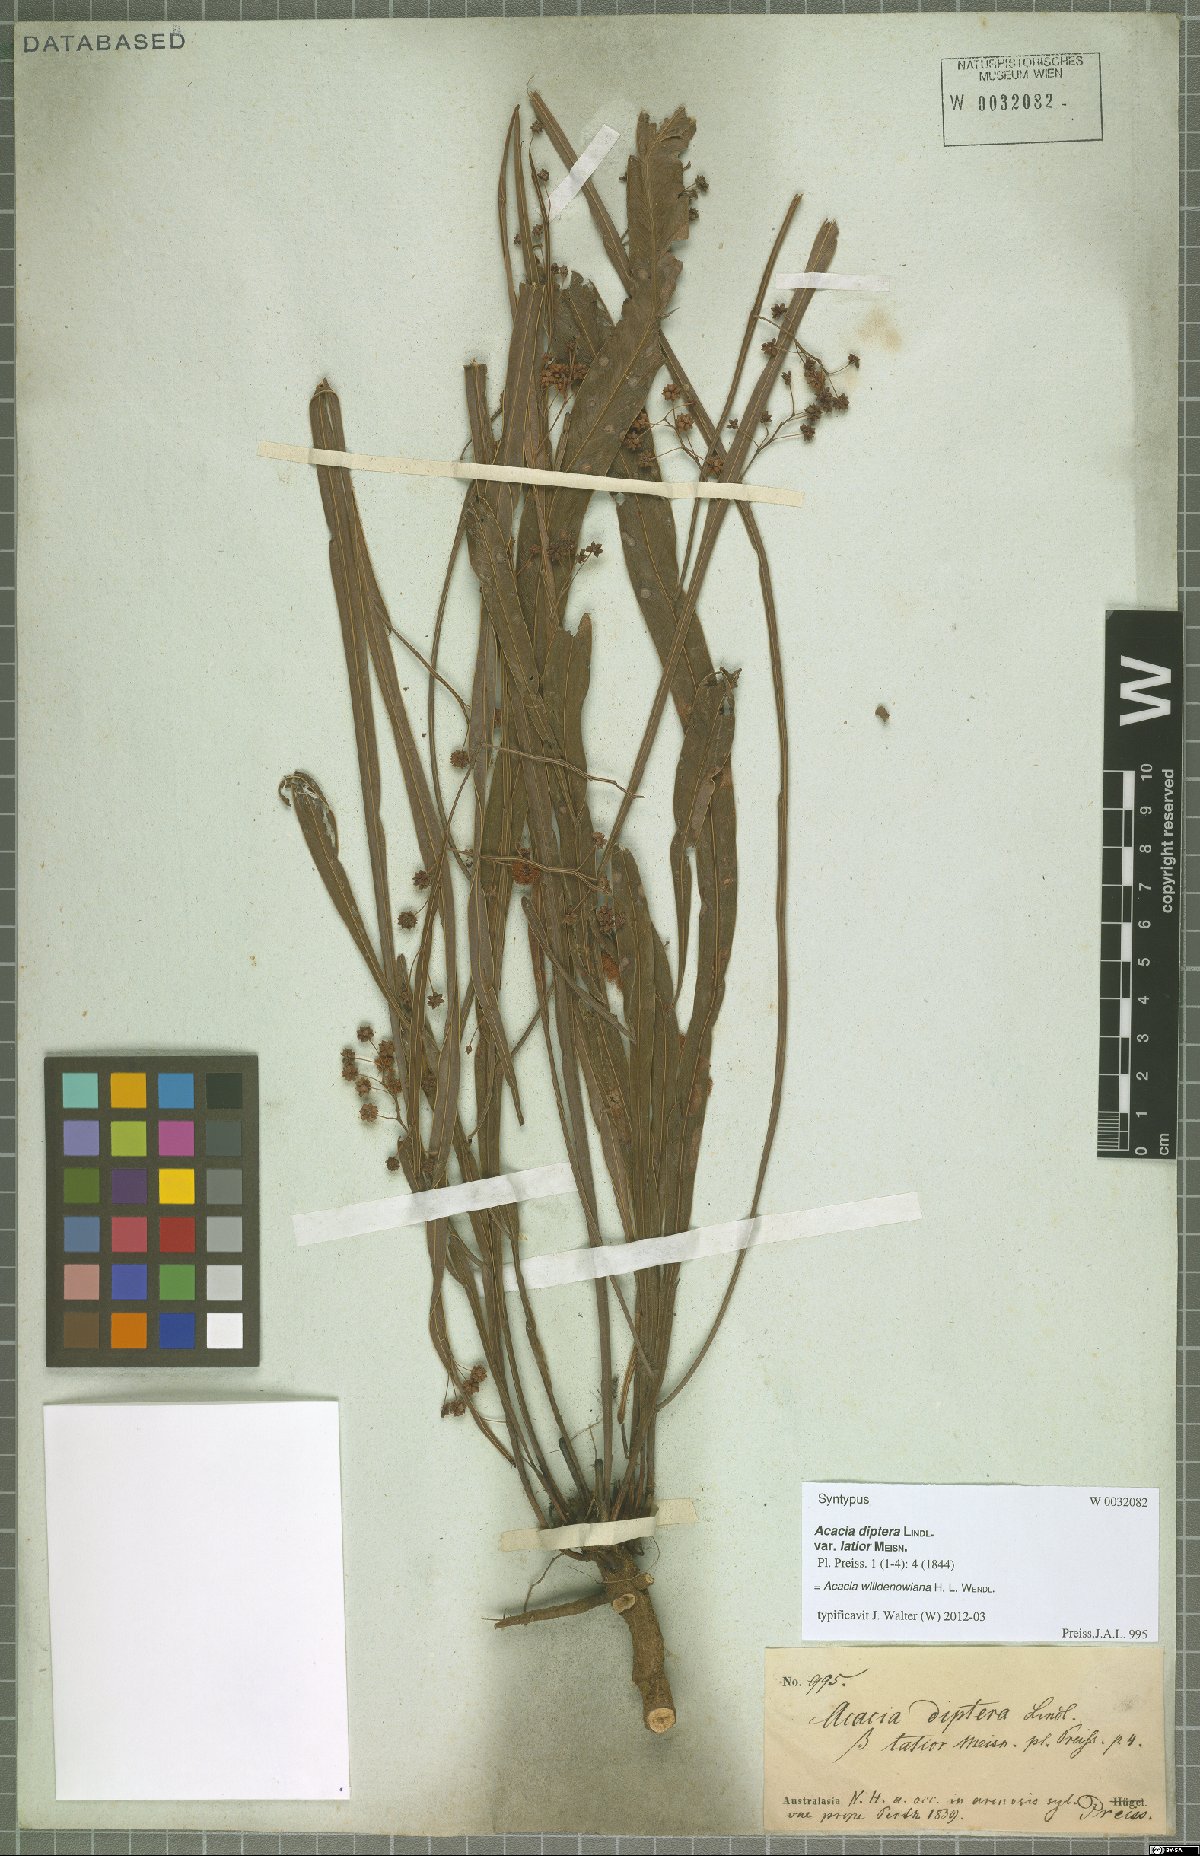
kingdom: Plantae
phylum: Tracheophyta
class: Magnoliopsida
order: Fabales
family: Fabaceae
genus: Acacia
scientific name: Acacia willdenowiana
